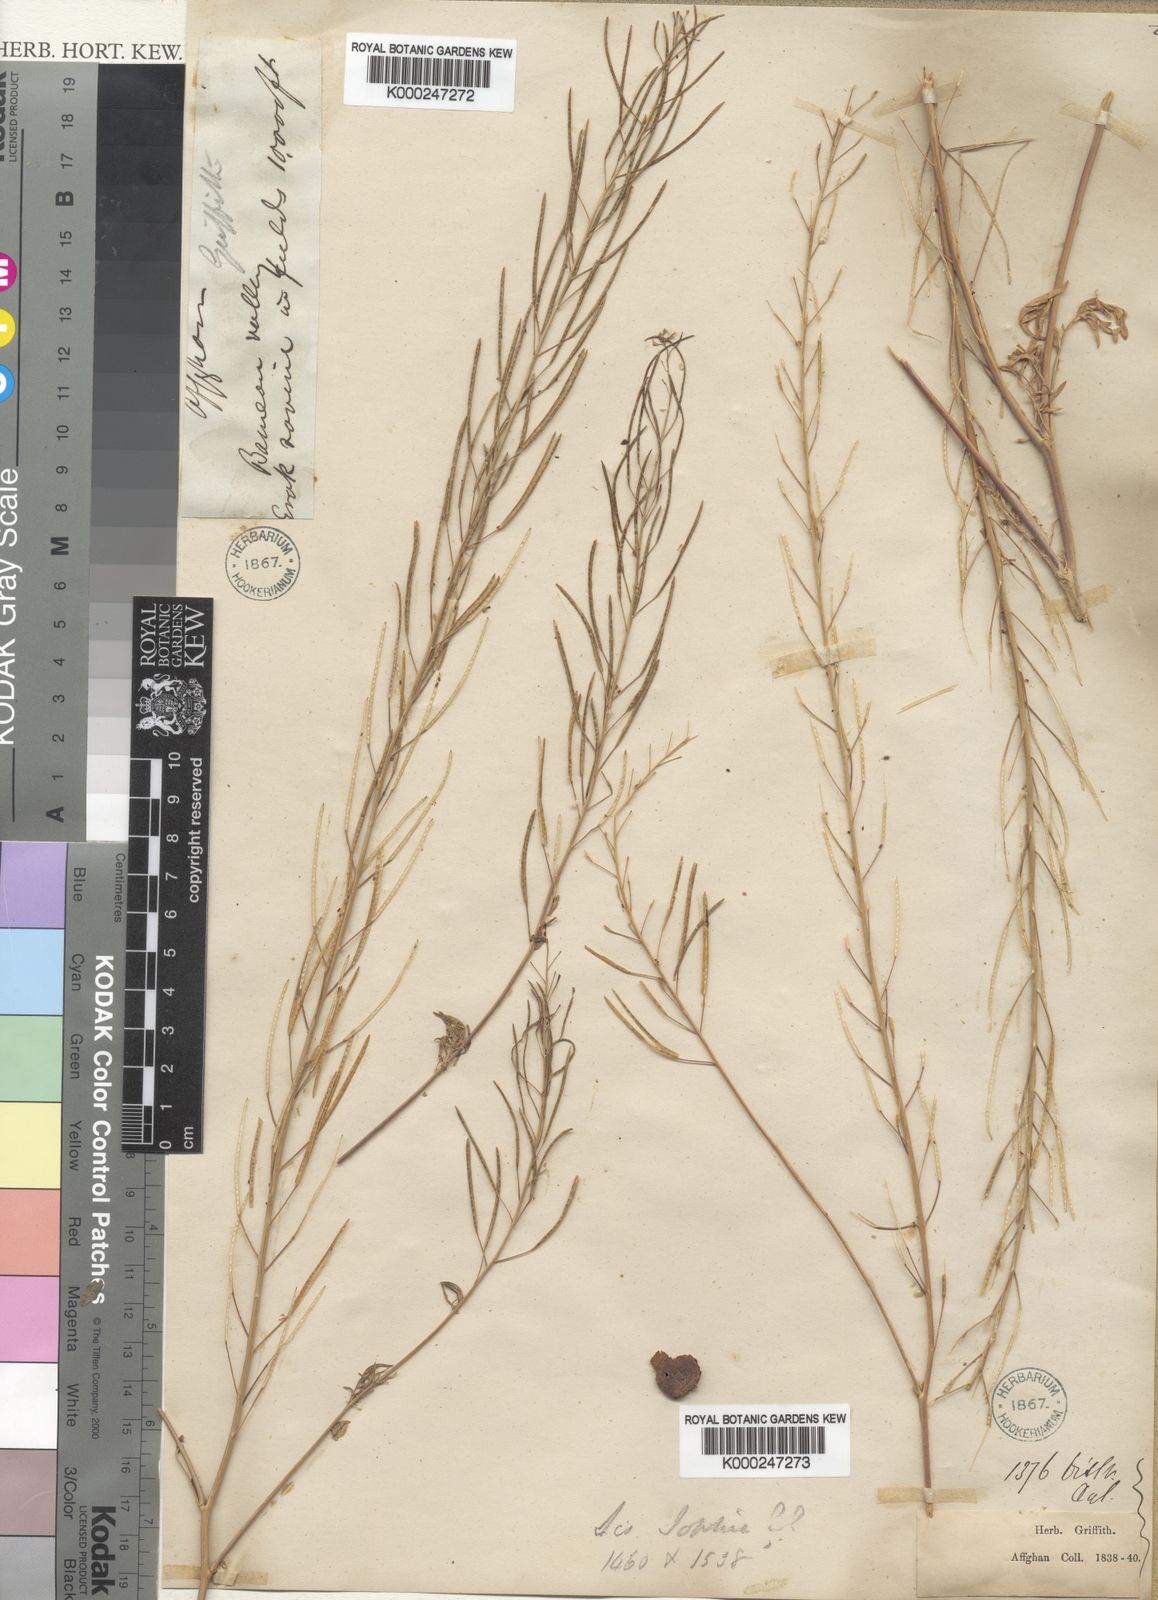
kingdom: Plantae
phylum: Tracheophyta
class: Magnoliopsida
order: Brassicales
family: Brassicaceae
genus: Descurainia
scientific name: Descurainia sophia
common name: Flixweed
